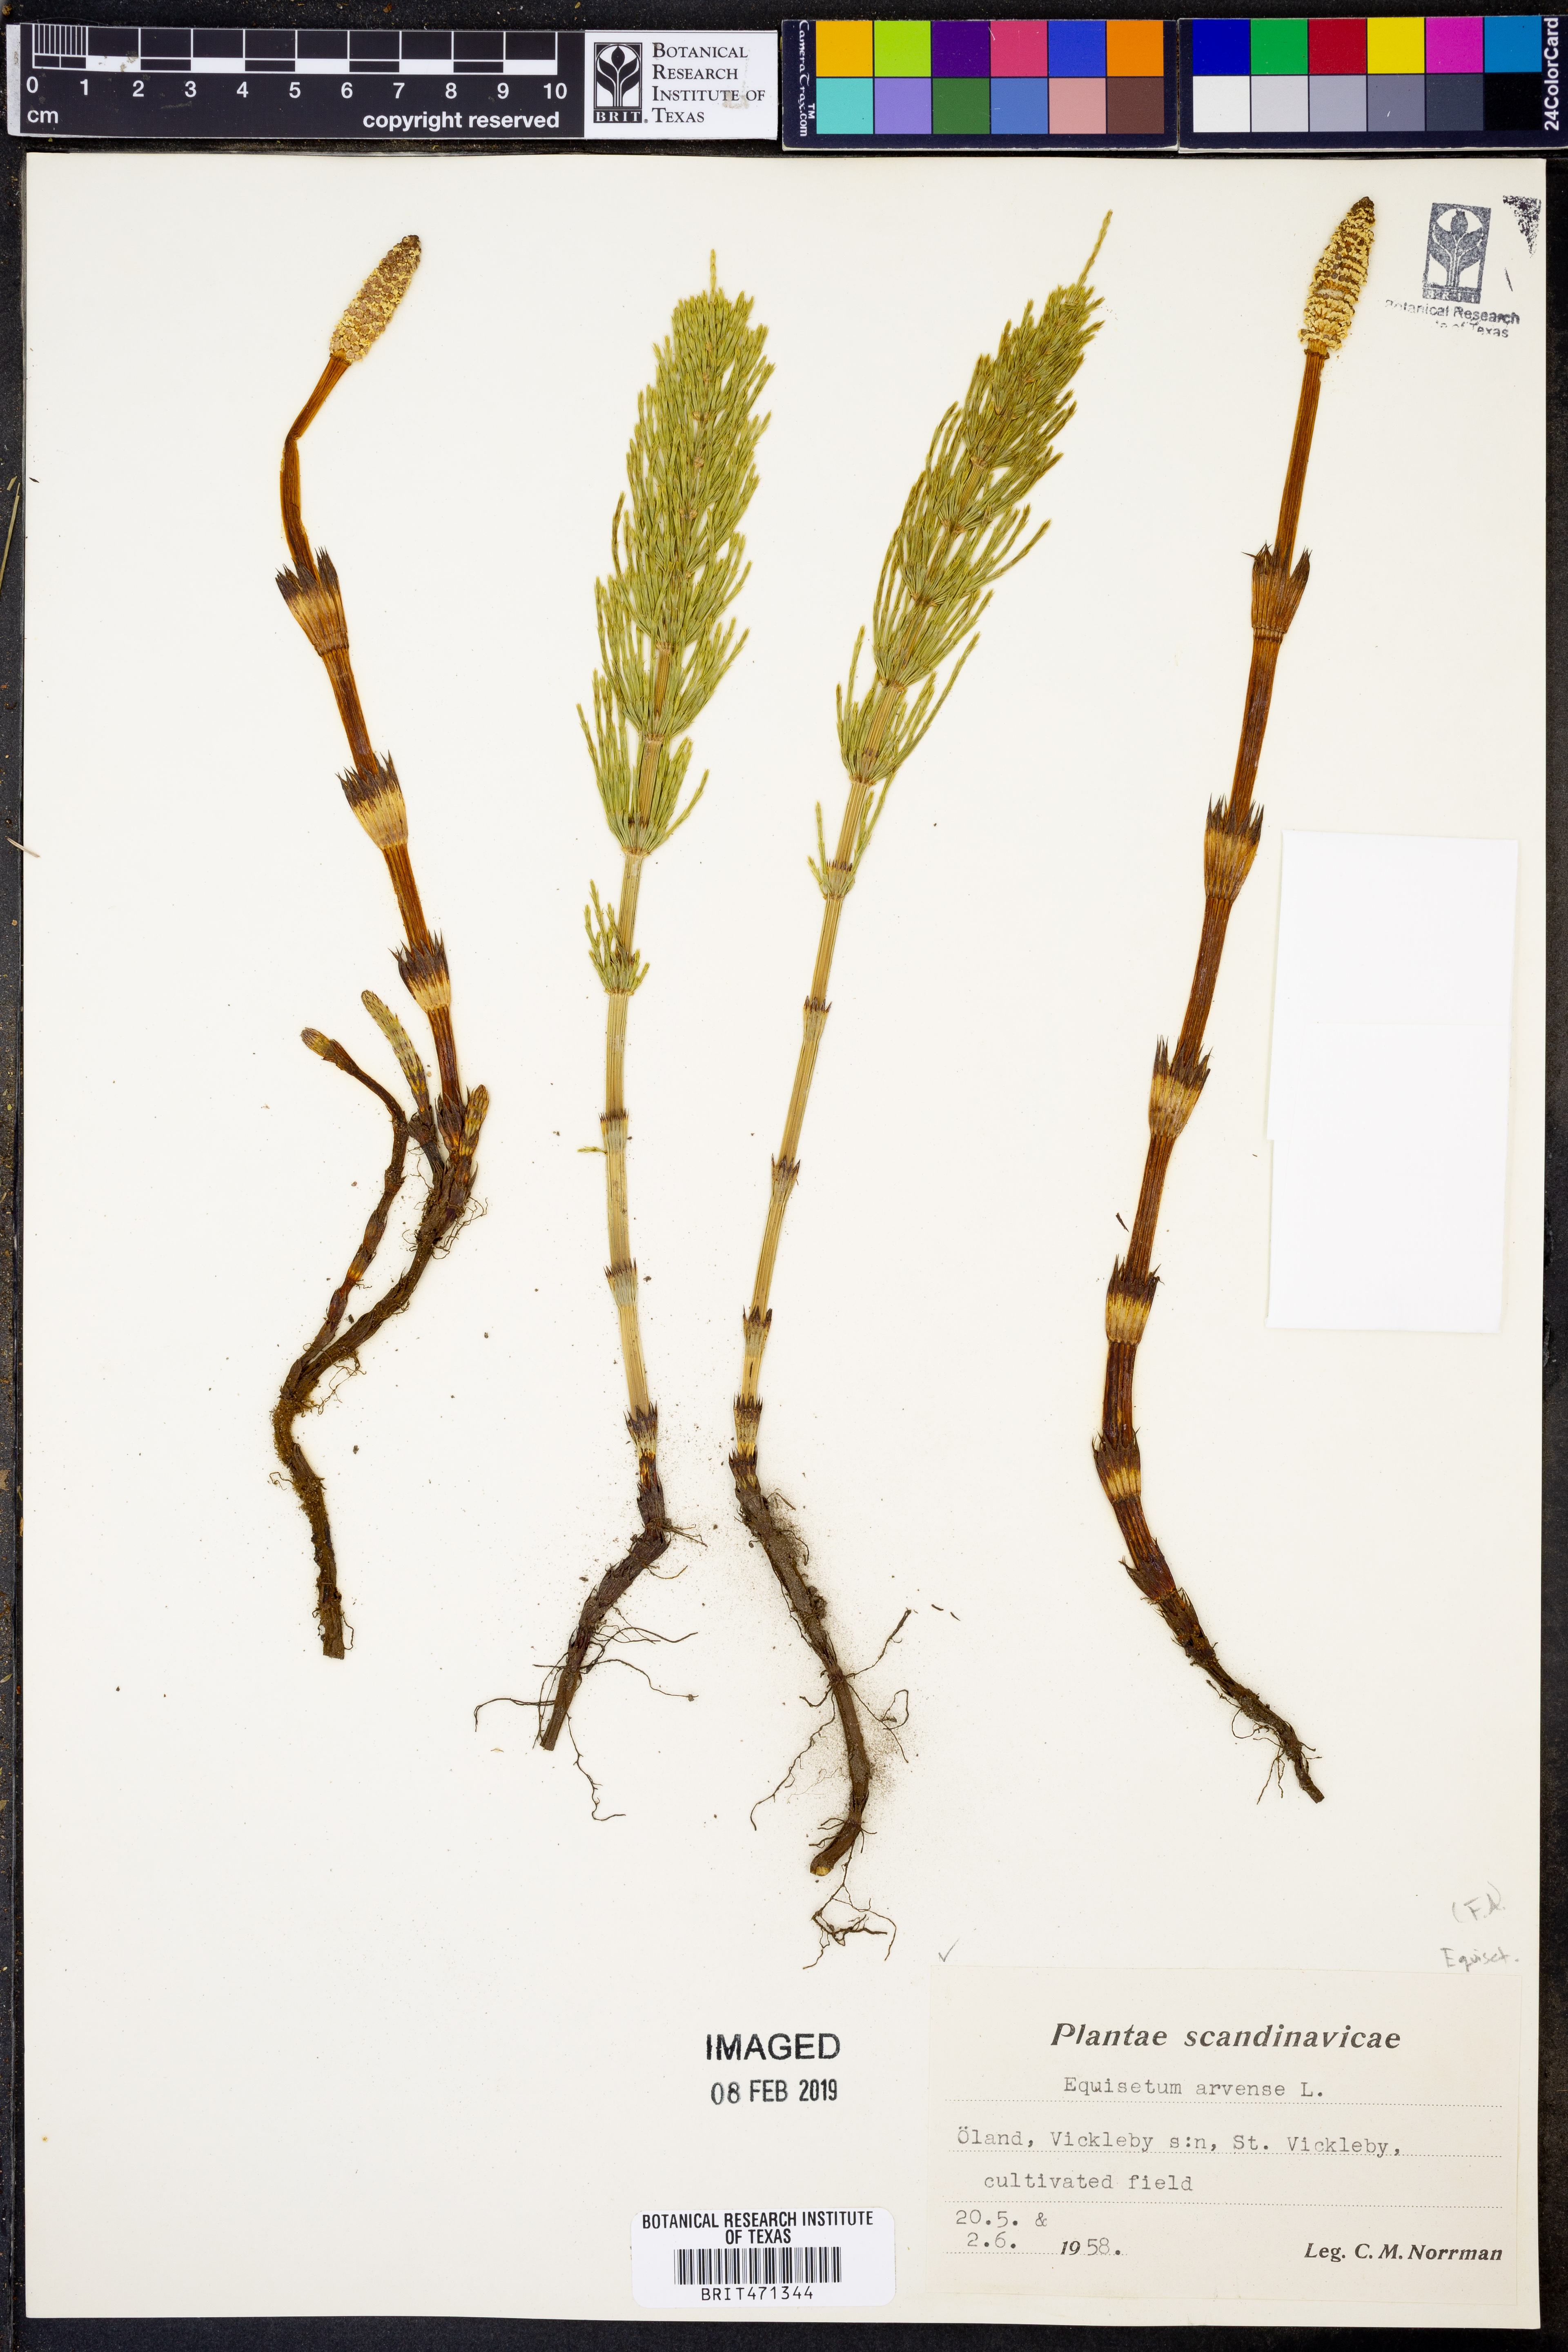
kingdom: Plantae
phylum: Tracheophyta
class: Polypodiopsida
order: Equisetales
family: Equisetaceae
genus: Equisetum
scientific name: Equisetum arvense
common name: Field horsetail
